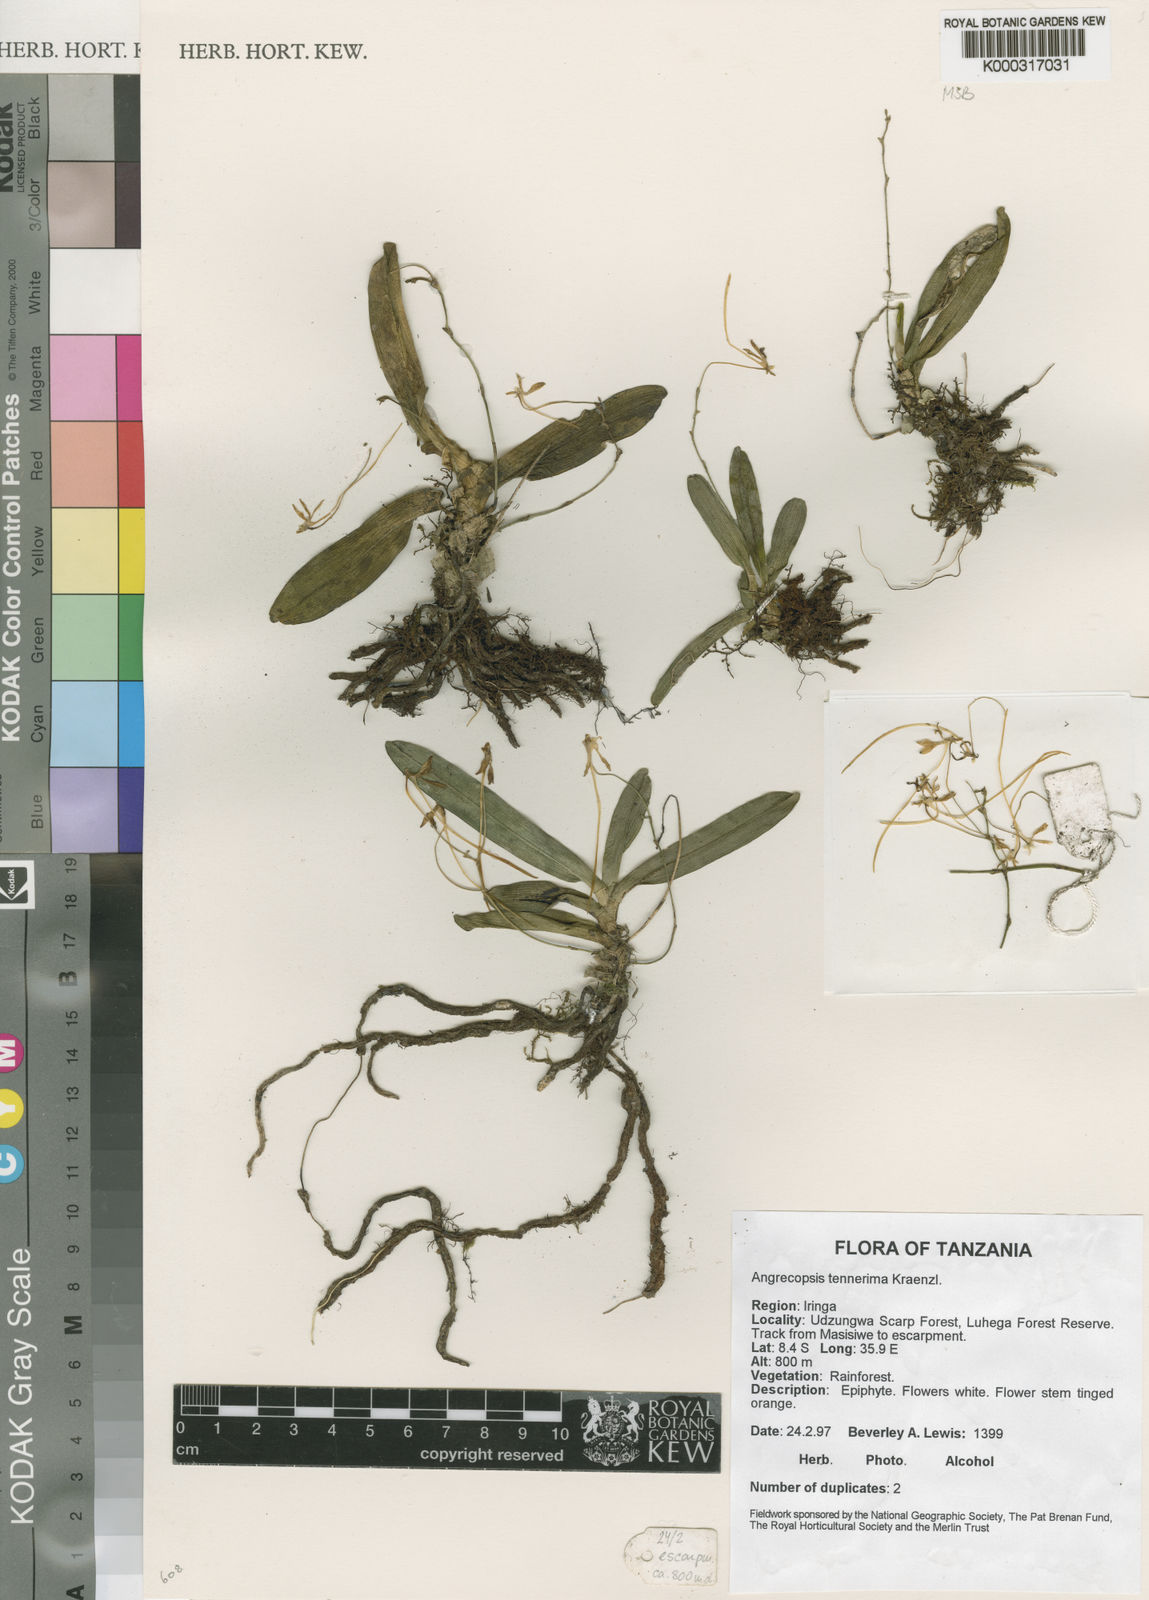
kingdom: Plantae
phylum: Tracheophyta
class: Liliopsida
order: Asparagales
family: Orchidaceae
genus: Angraecopsis
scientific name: Angraecopsis tenerrima
